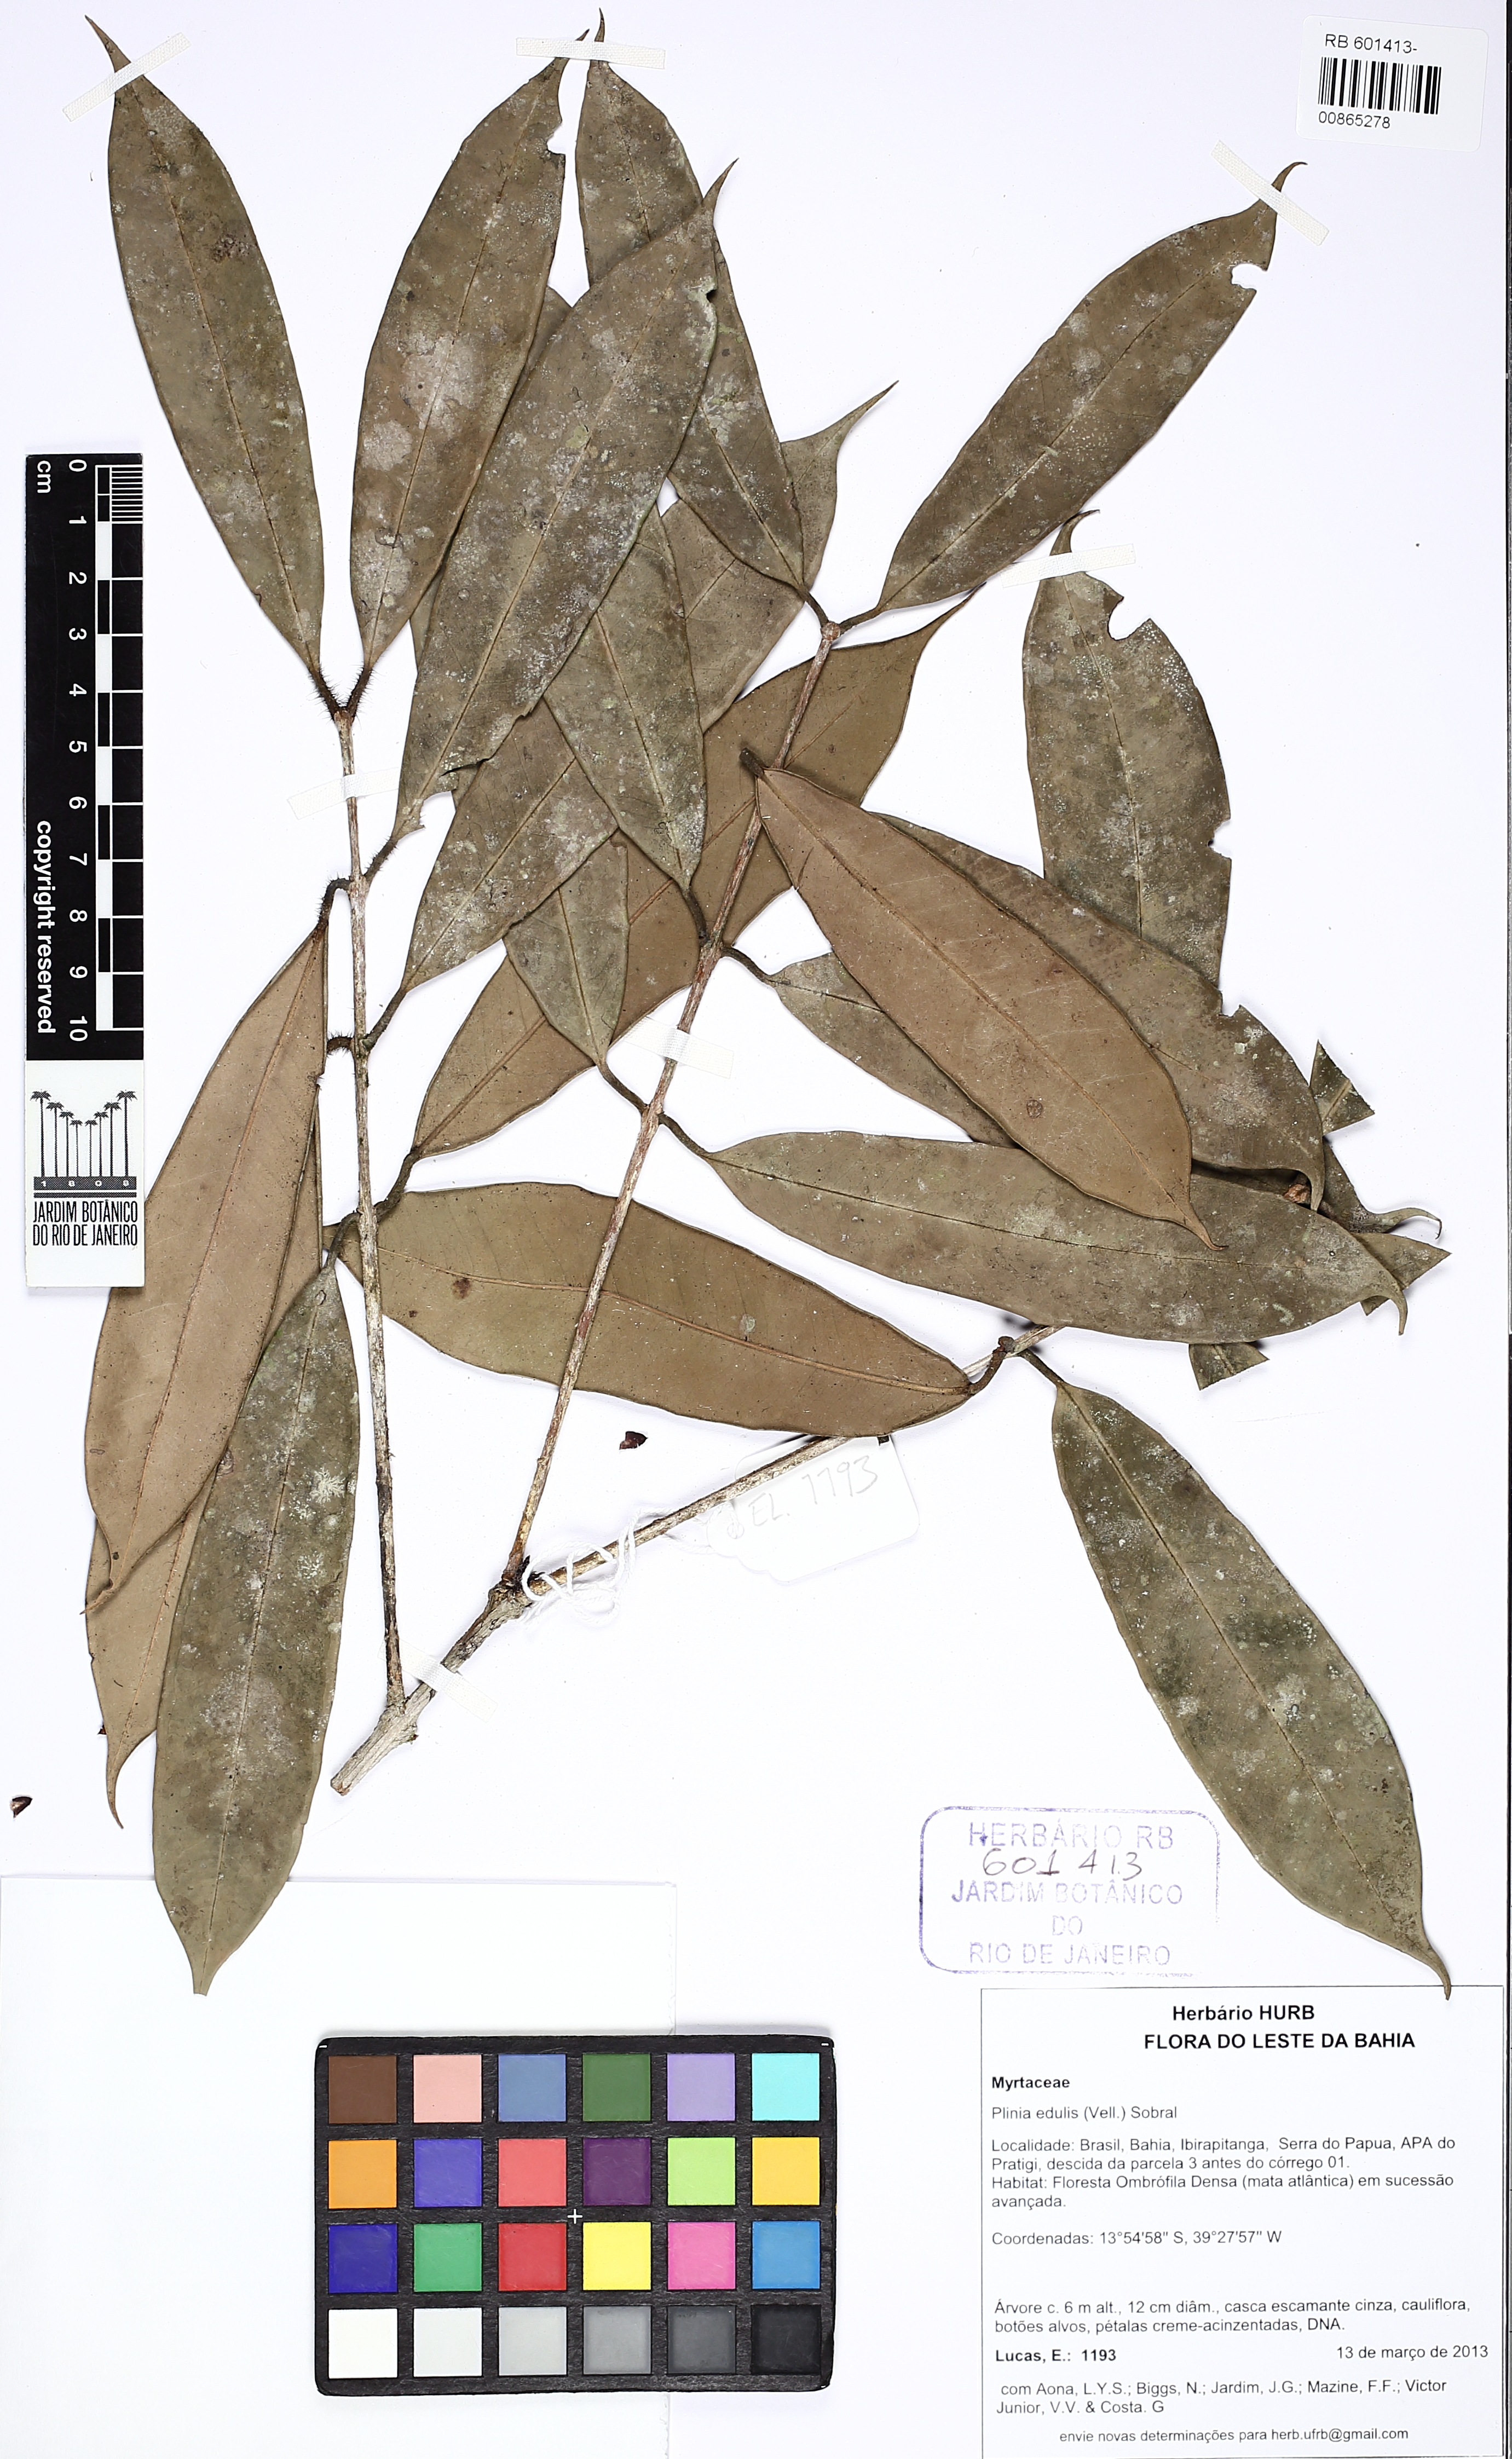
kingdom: Plantae
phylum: Tracheophyta
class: Magnoliopsida
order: Myrtales
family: Myrtaceae
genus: Plinia
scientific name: Plinia edulis
